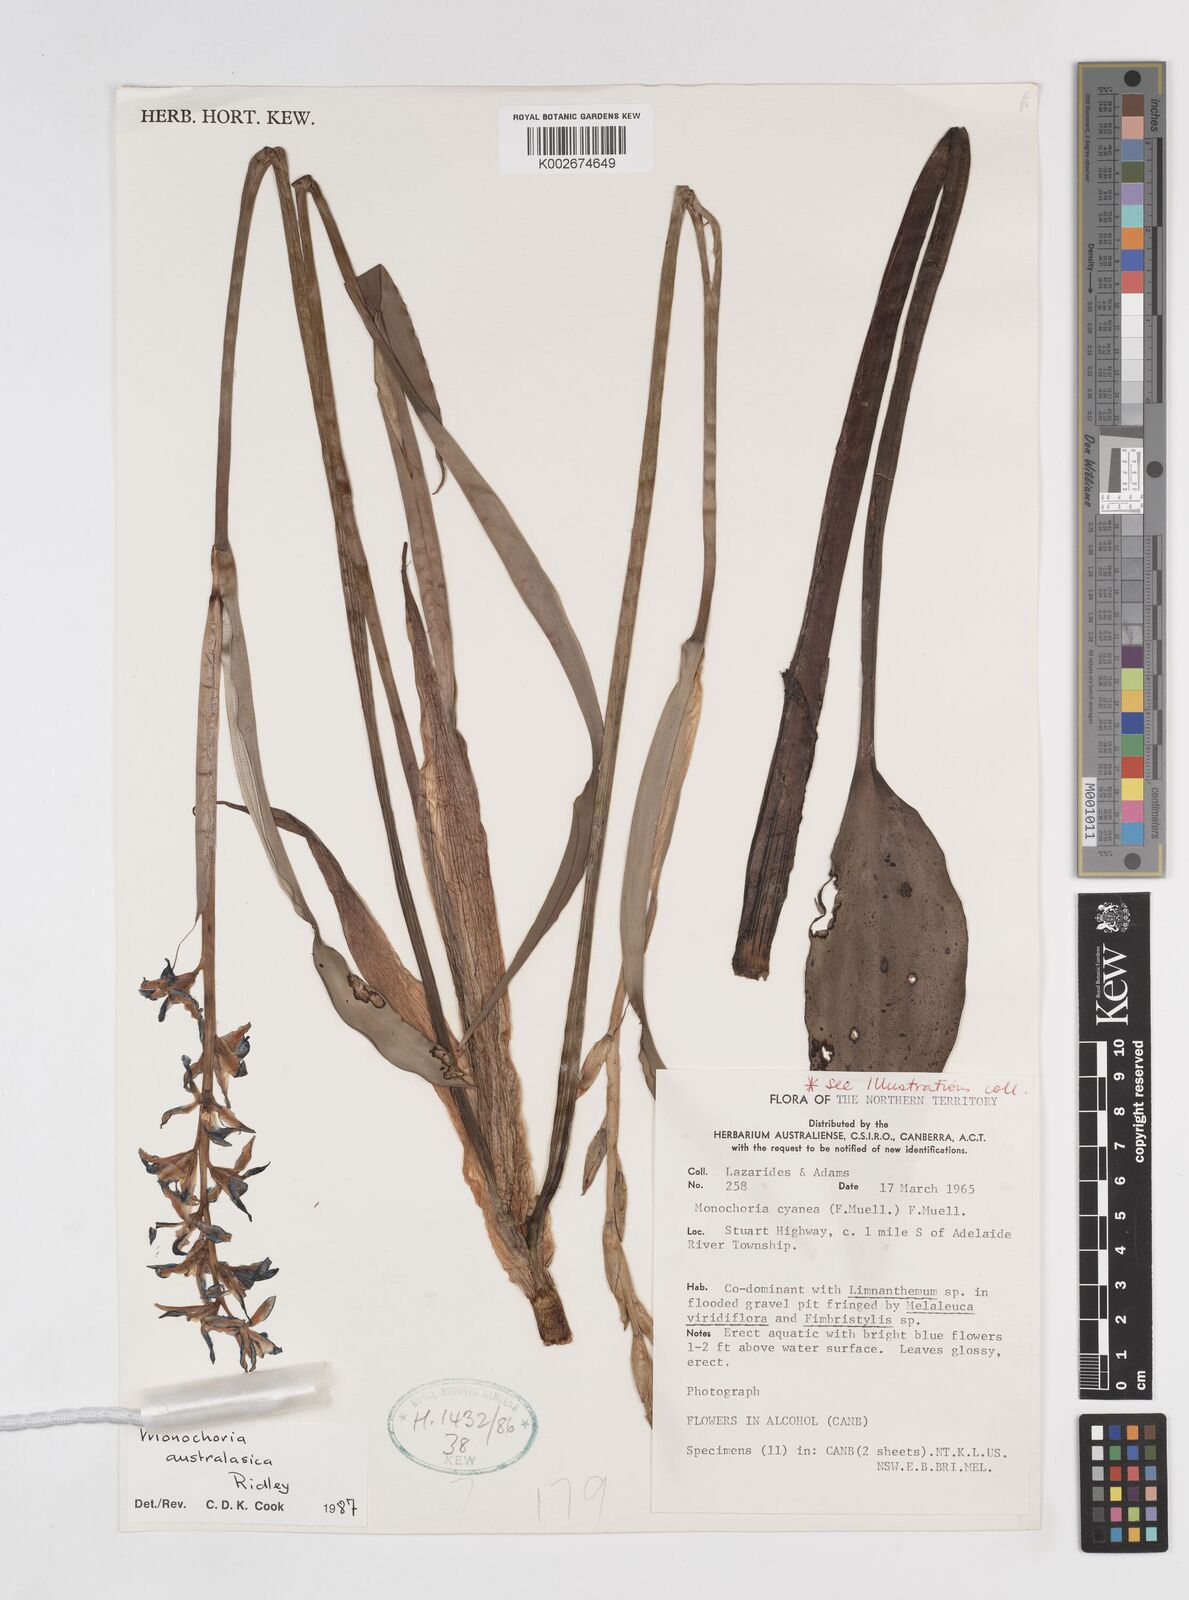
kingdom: Plantae
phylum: Tracheophyta
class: Liliopsida
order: Commelinales
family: Pontederiaceae
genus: Pontederia
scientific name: Pontederia australasica
